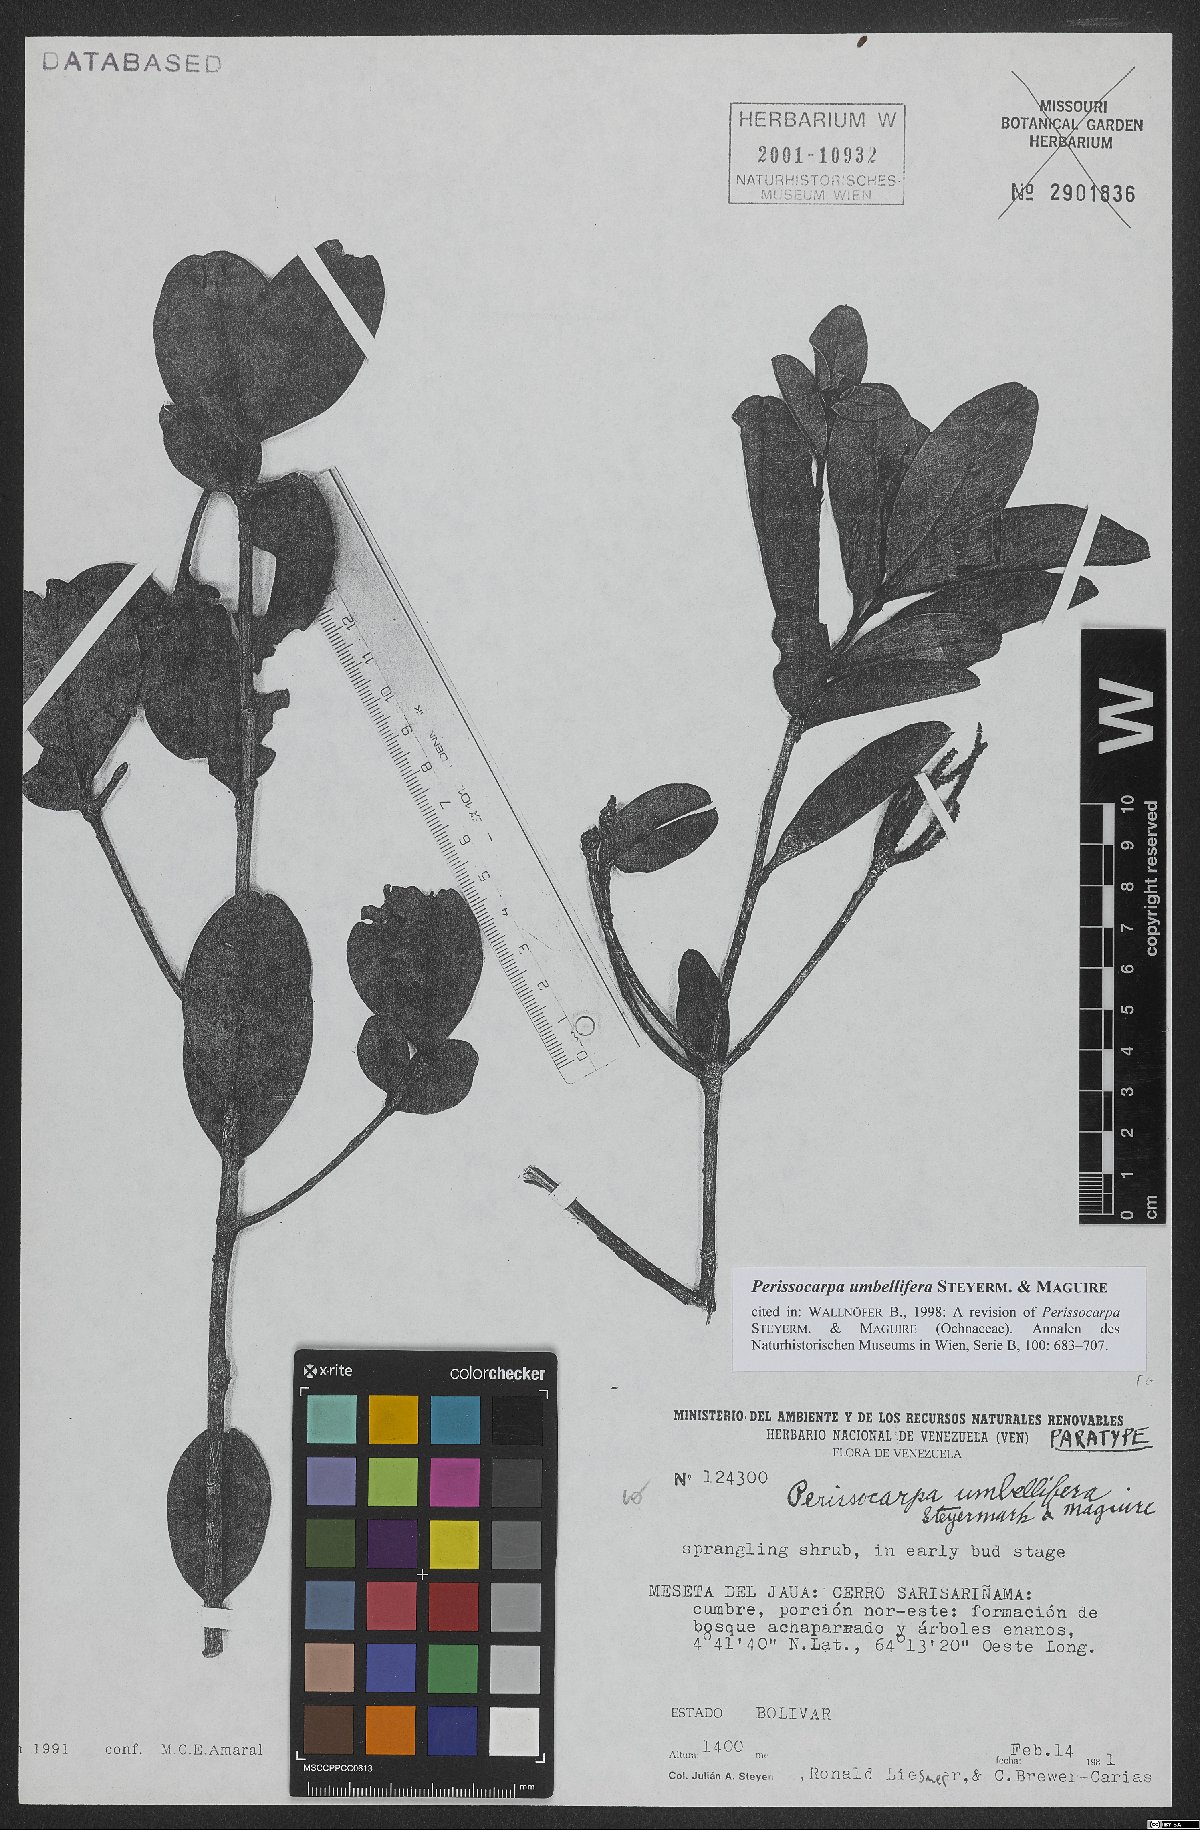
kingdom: Plantae
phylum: Tracheophyta
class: Magnoliopsida
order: Malpighiales
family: Ochnaceae
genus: Perissocarpa
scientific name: Perissocarpa umbellifera
